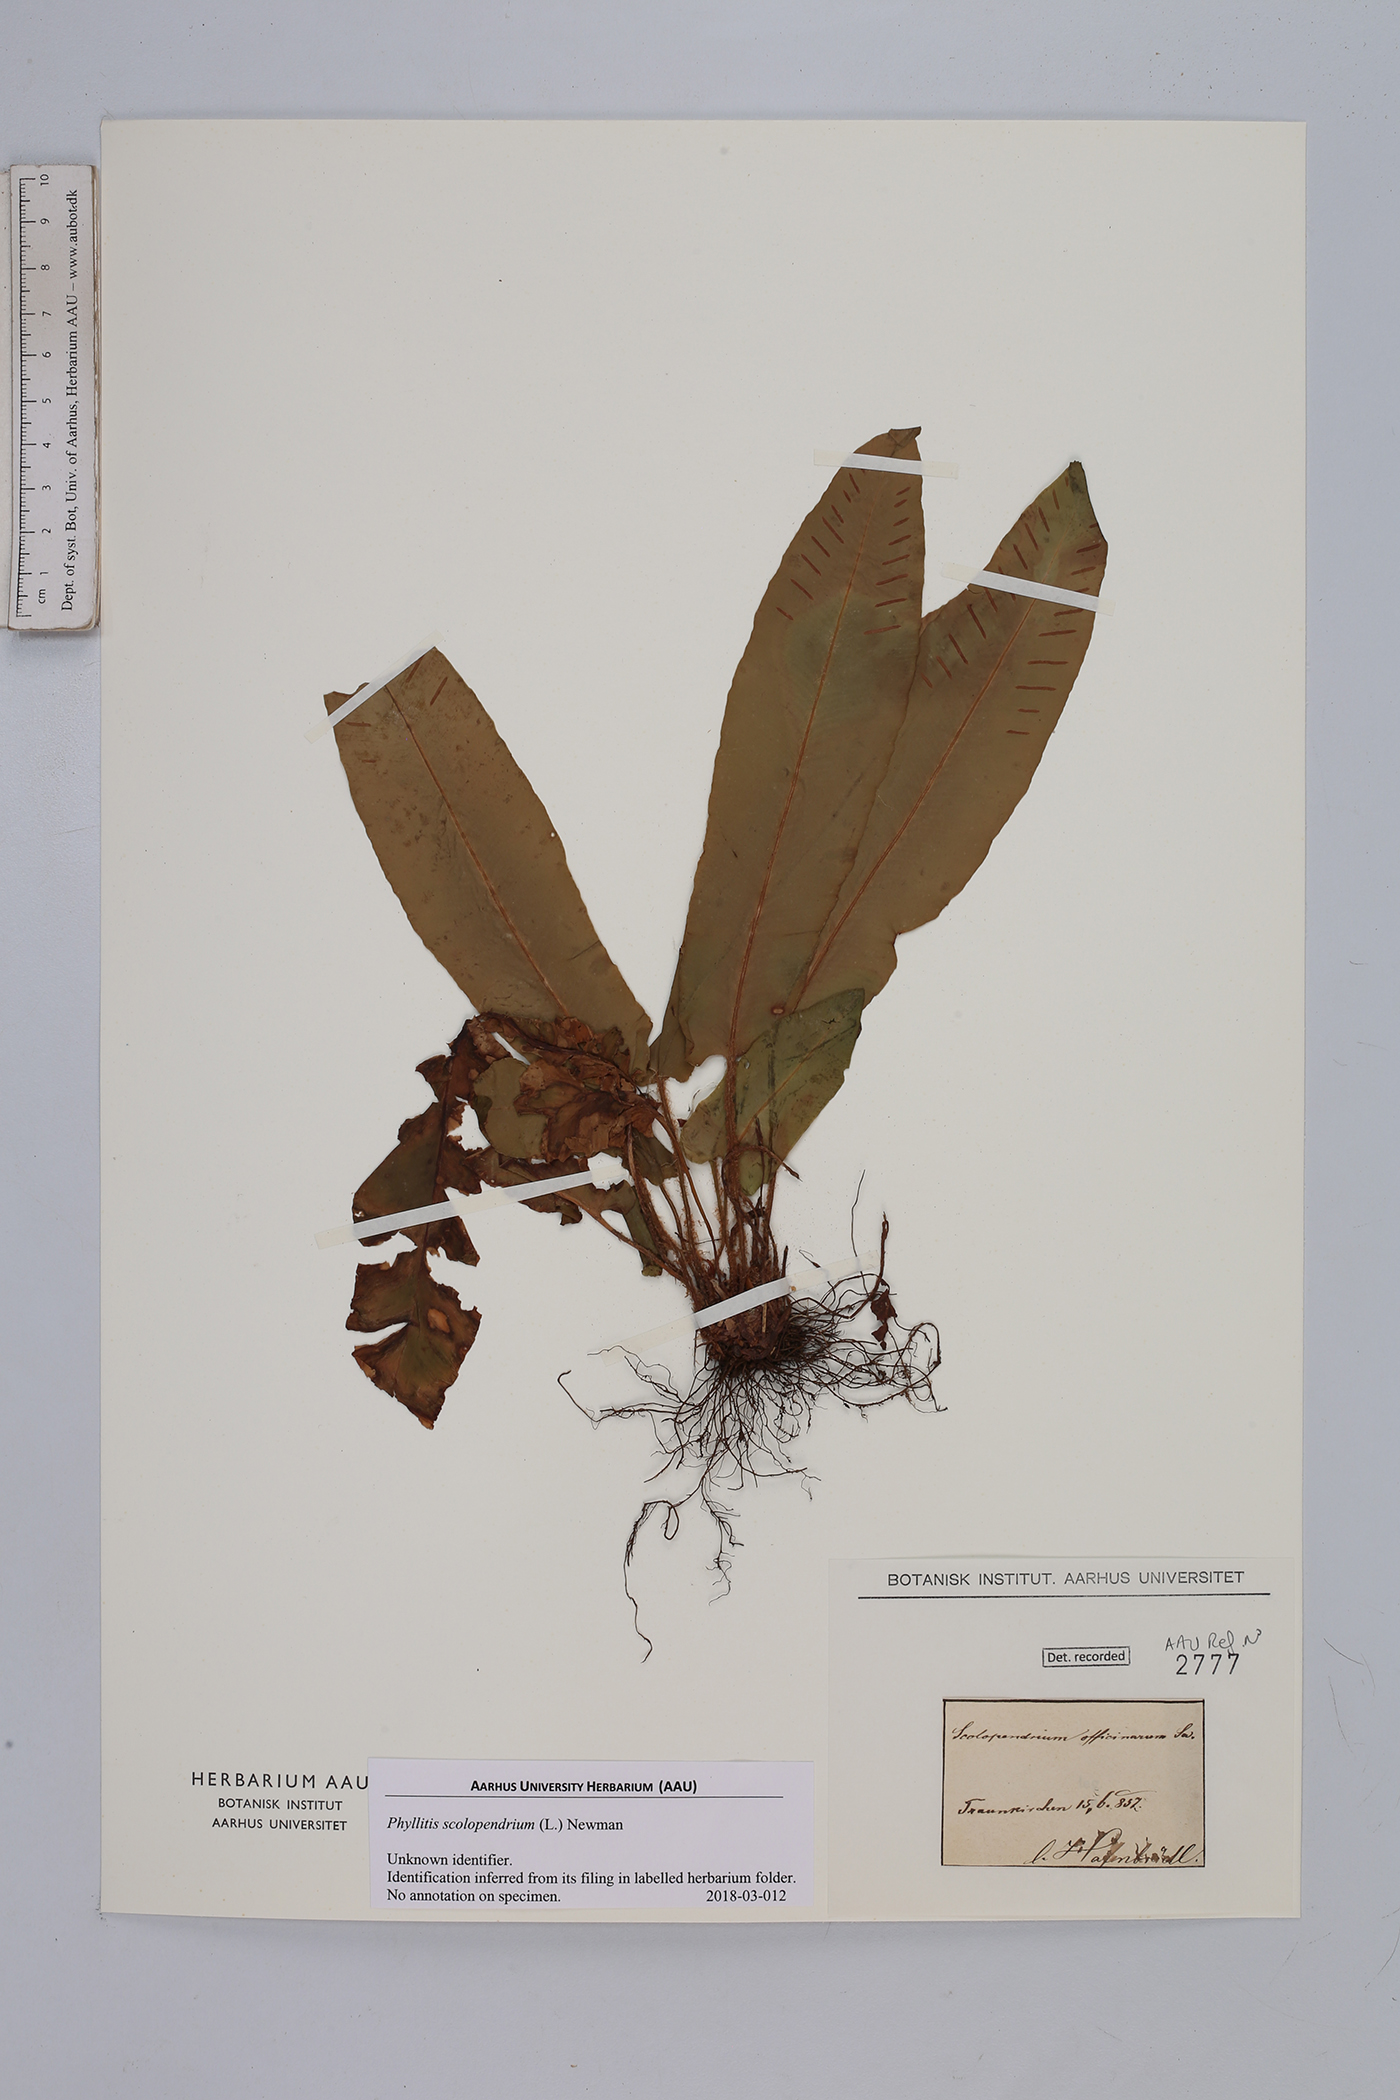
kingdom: Plantae
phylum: Tracheophyta
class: Polypodiopsida
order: Polypodiales
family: Aspleniaceae
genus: Asplenium
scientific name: Asplenium scolopendrium
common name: Hart's-tongue fern
